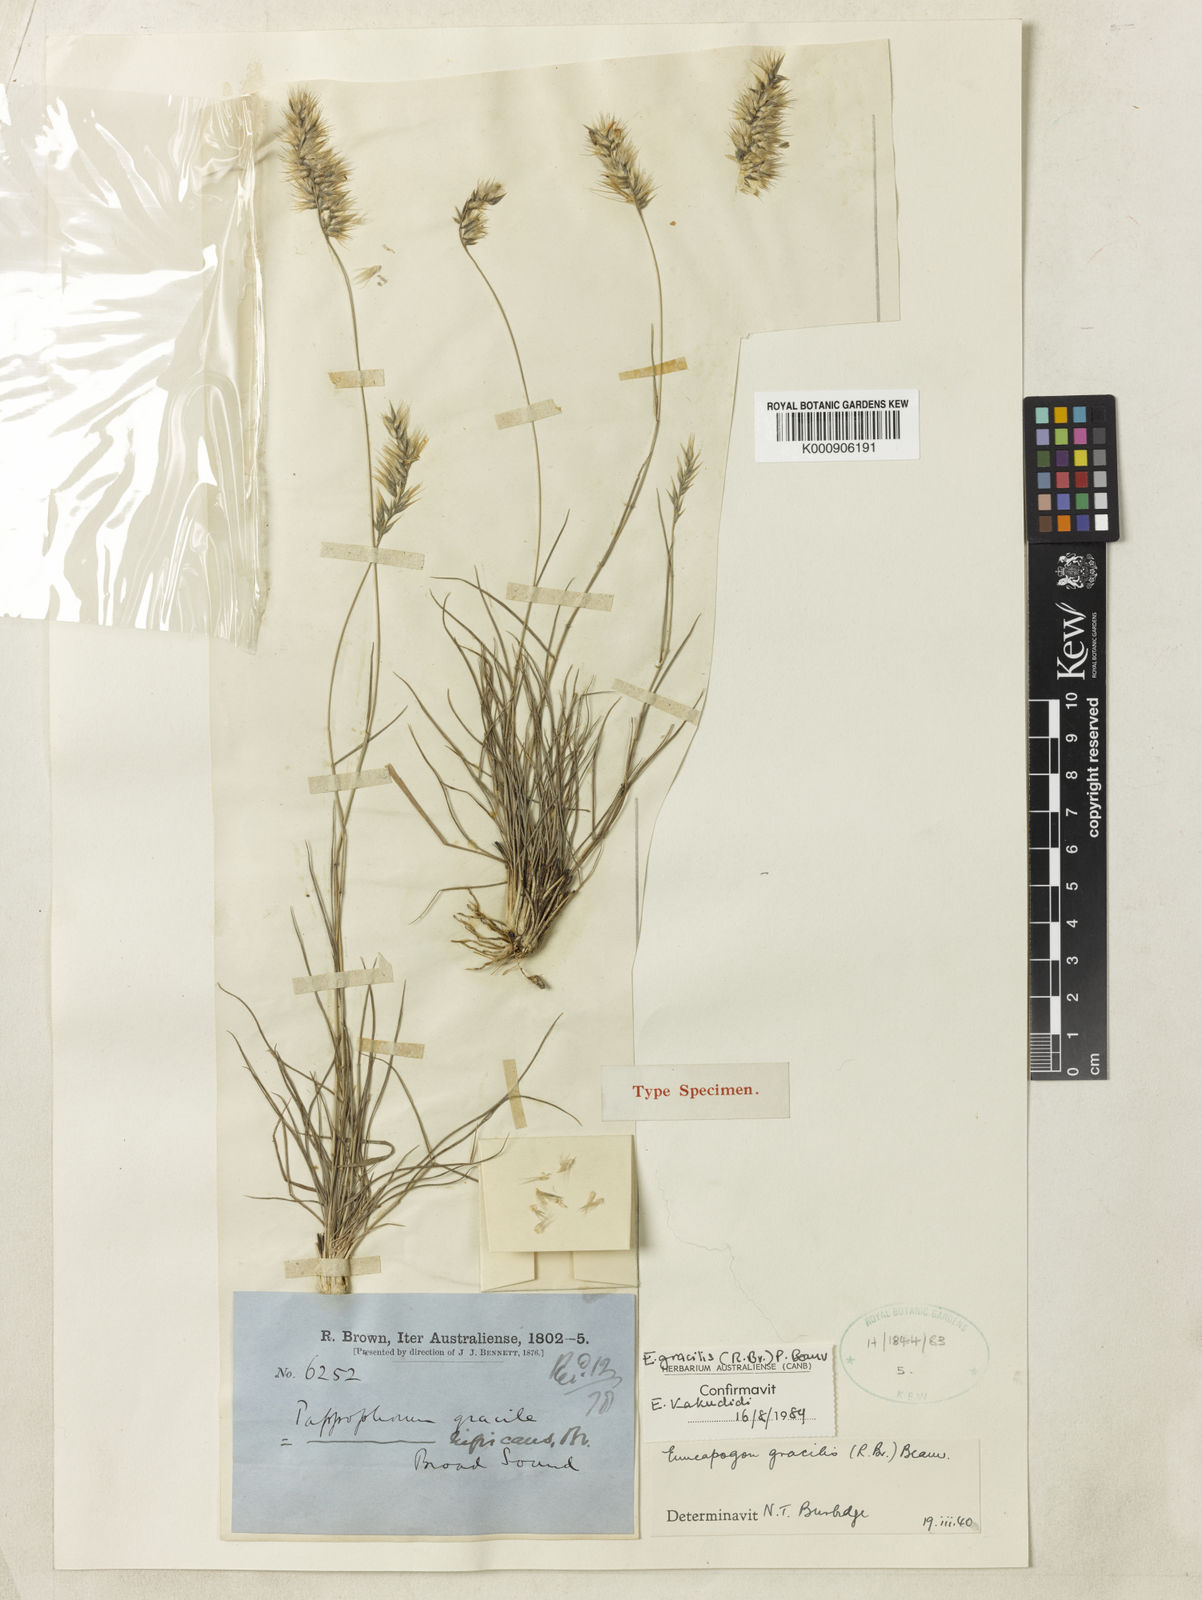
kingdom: Plantae
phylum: Tracheophyta
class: Liliopsida
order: Poales
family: Poaceae
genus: Enneapogon
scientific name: Enneapogon gracilis
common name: Slender bottle-washers
